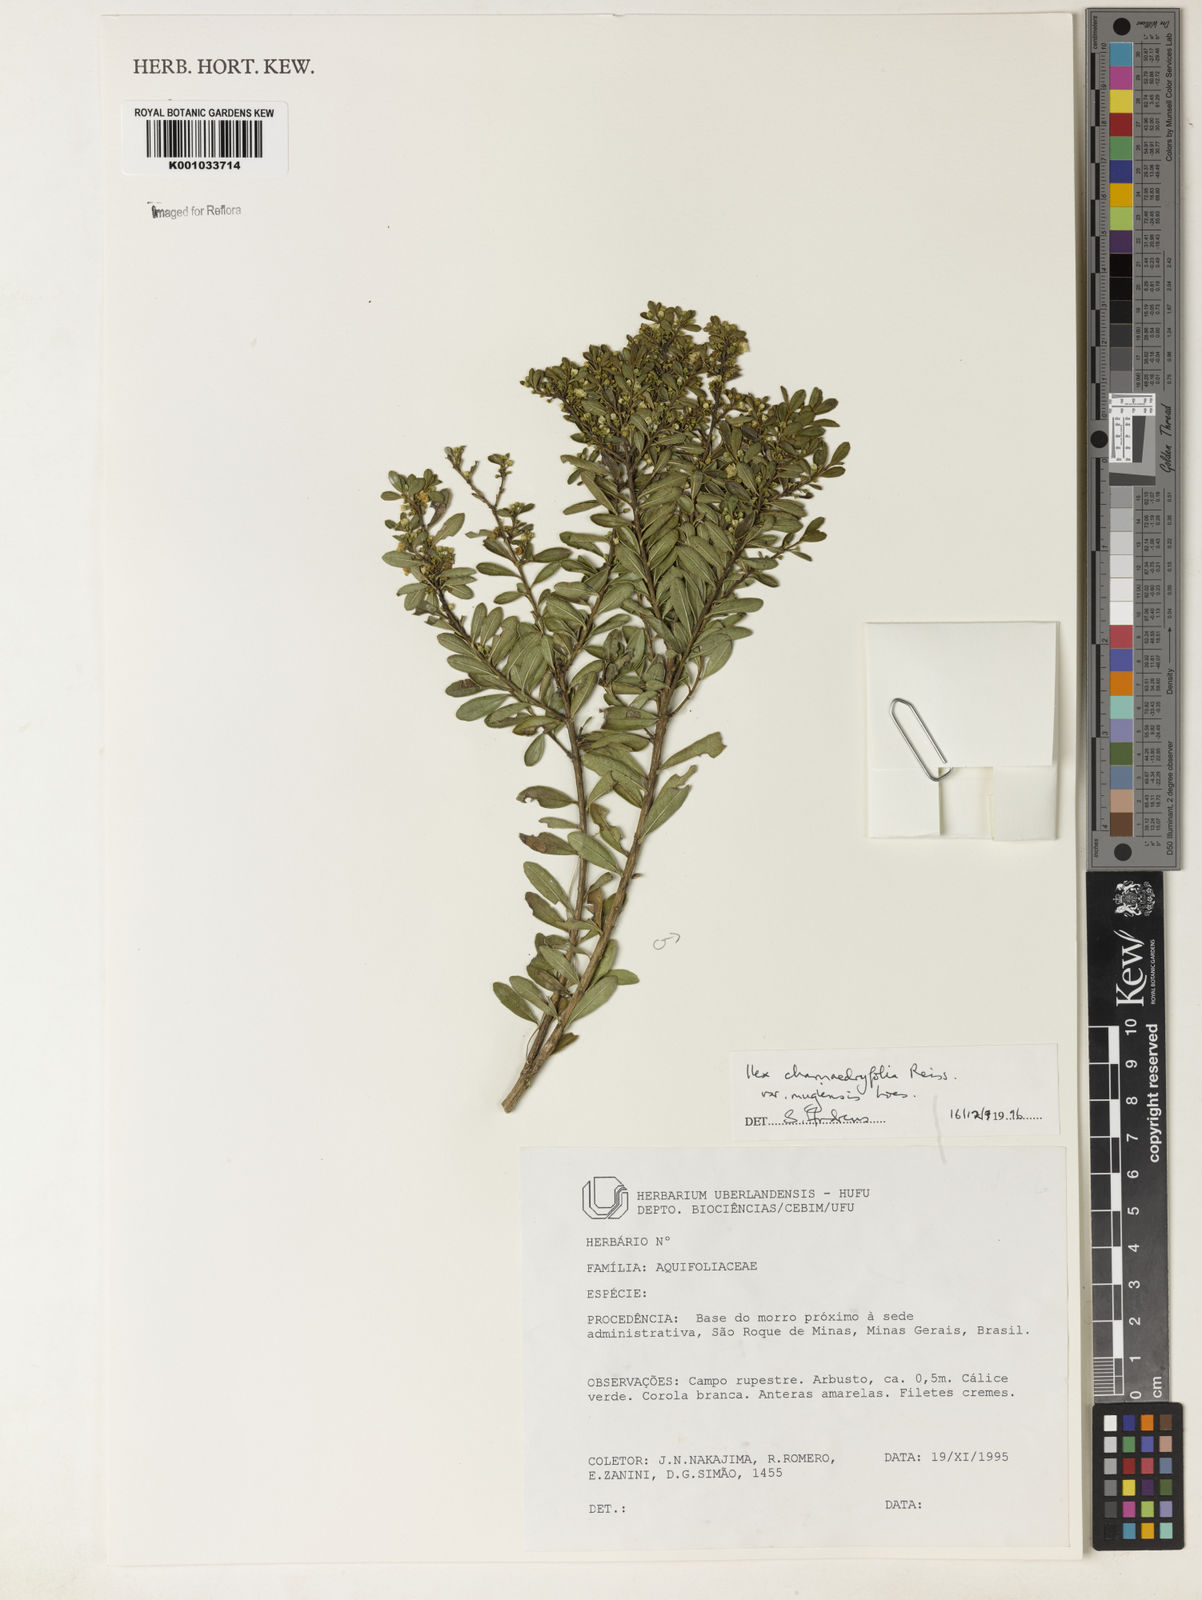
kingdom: Plantae
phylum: Tracheophyta
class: Magnoliopsida
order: Aquifoliales
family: Aquifoliaceae
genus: Ilex
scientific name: Ilex chamaedryfolia
